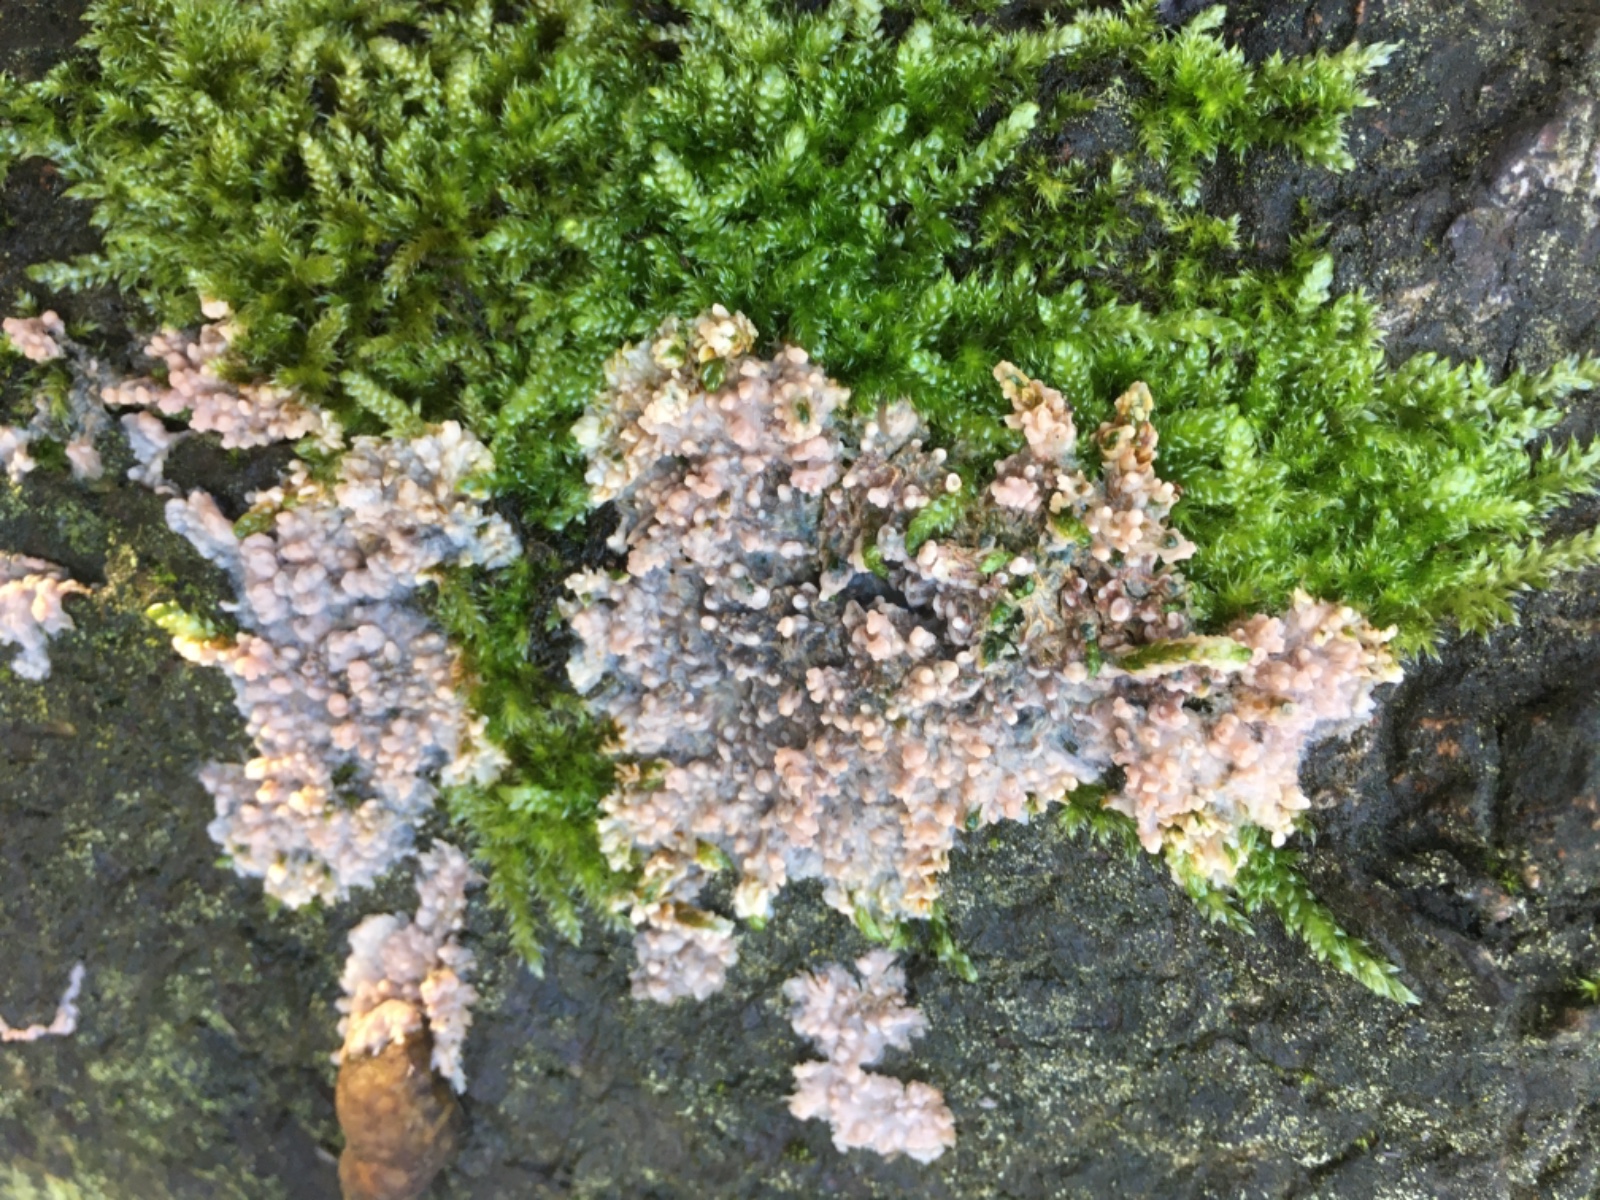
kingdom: Fungi
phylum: Basidiomycota
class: Agaricomycetes
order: Polyporales
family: Meruliaceae
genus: Phlebia
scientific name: Phlebia radiata
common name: stråle-åresvamp
